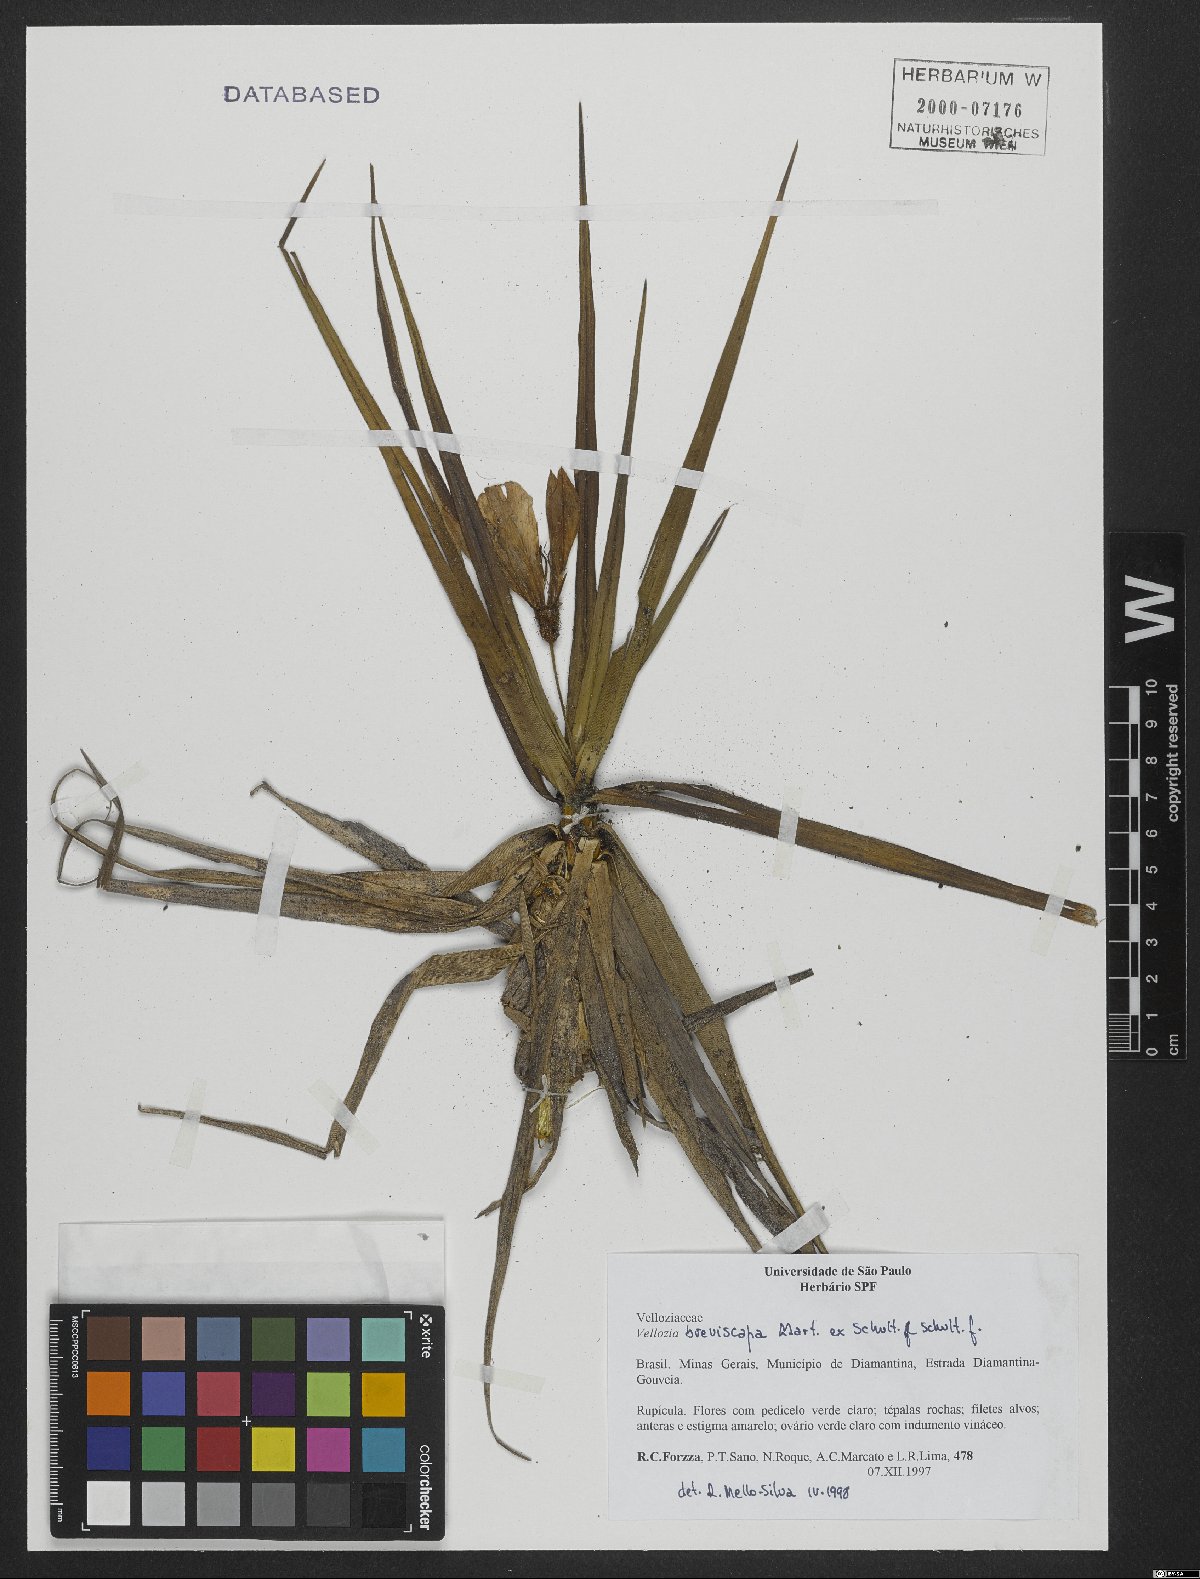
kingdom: Plantae
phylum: Tracheophyta
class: Liliopsida
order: Pandanales
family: Velloziaceae
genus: Vellozia
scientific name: Vellozia breviscapa
